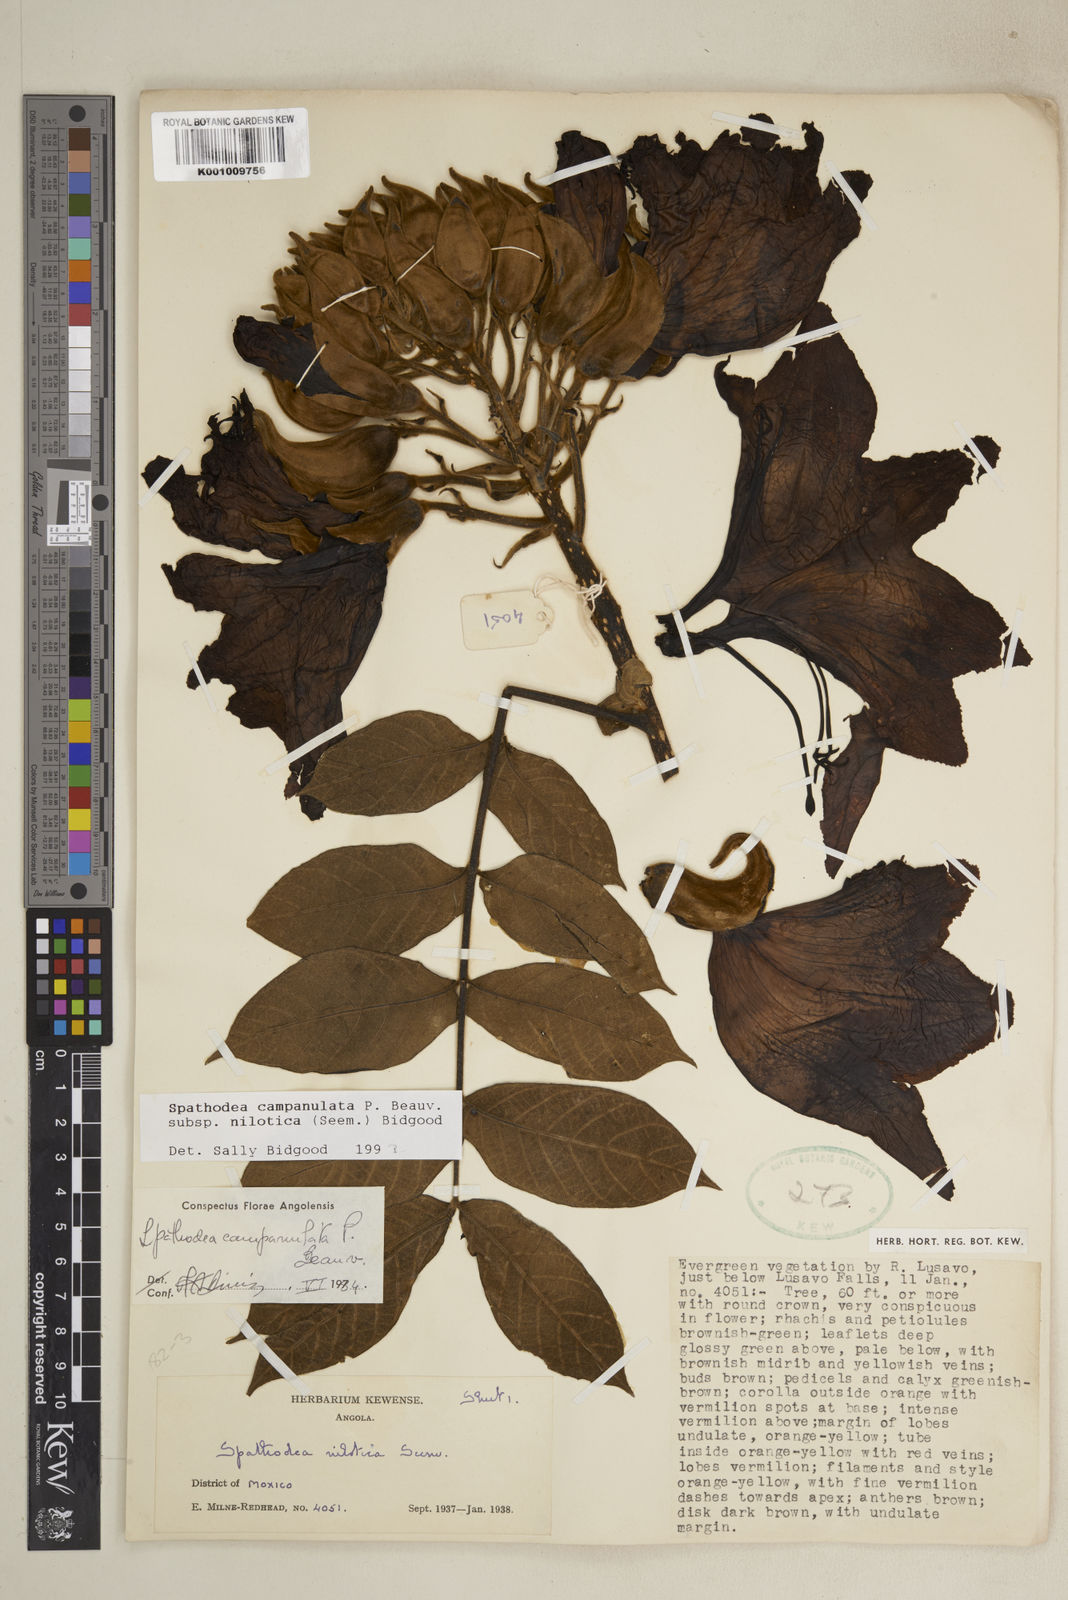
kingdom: Plantae
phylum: Tracheophyta
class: Magnoliopsida
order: Lamiales
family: Bignoniaceae
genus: Spathodea
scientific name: Spathodea campanulata
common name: African tuliptree
